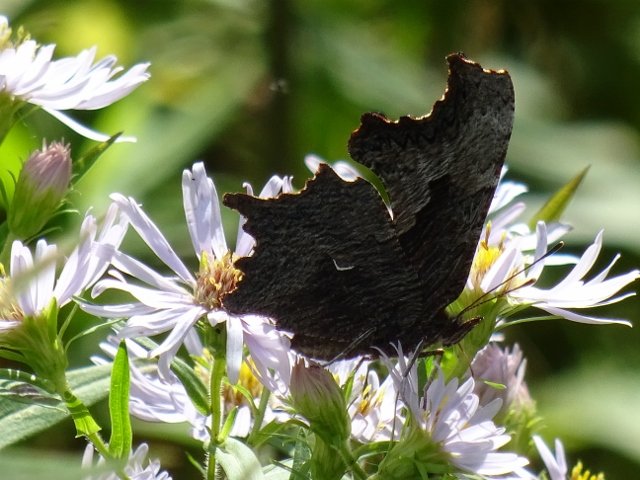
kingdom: Animalia
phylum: Arthropoda
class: Insecta
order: Lepidoptera
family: Nymphalidae
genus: Polygonia
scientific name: Polygonia progne
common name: Gray Comma
